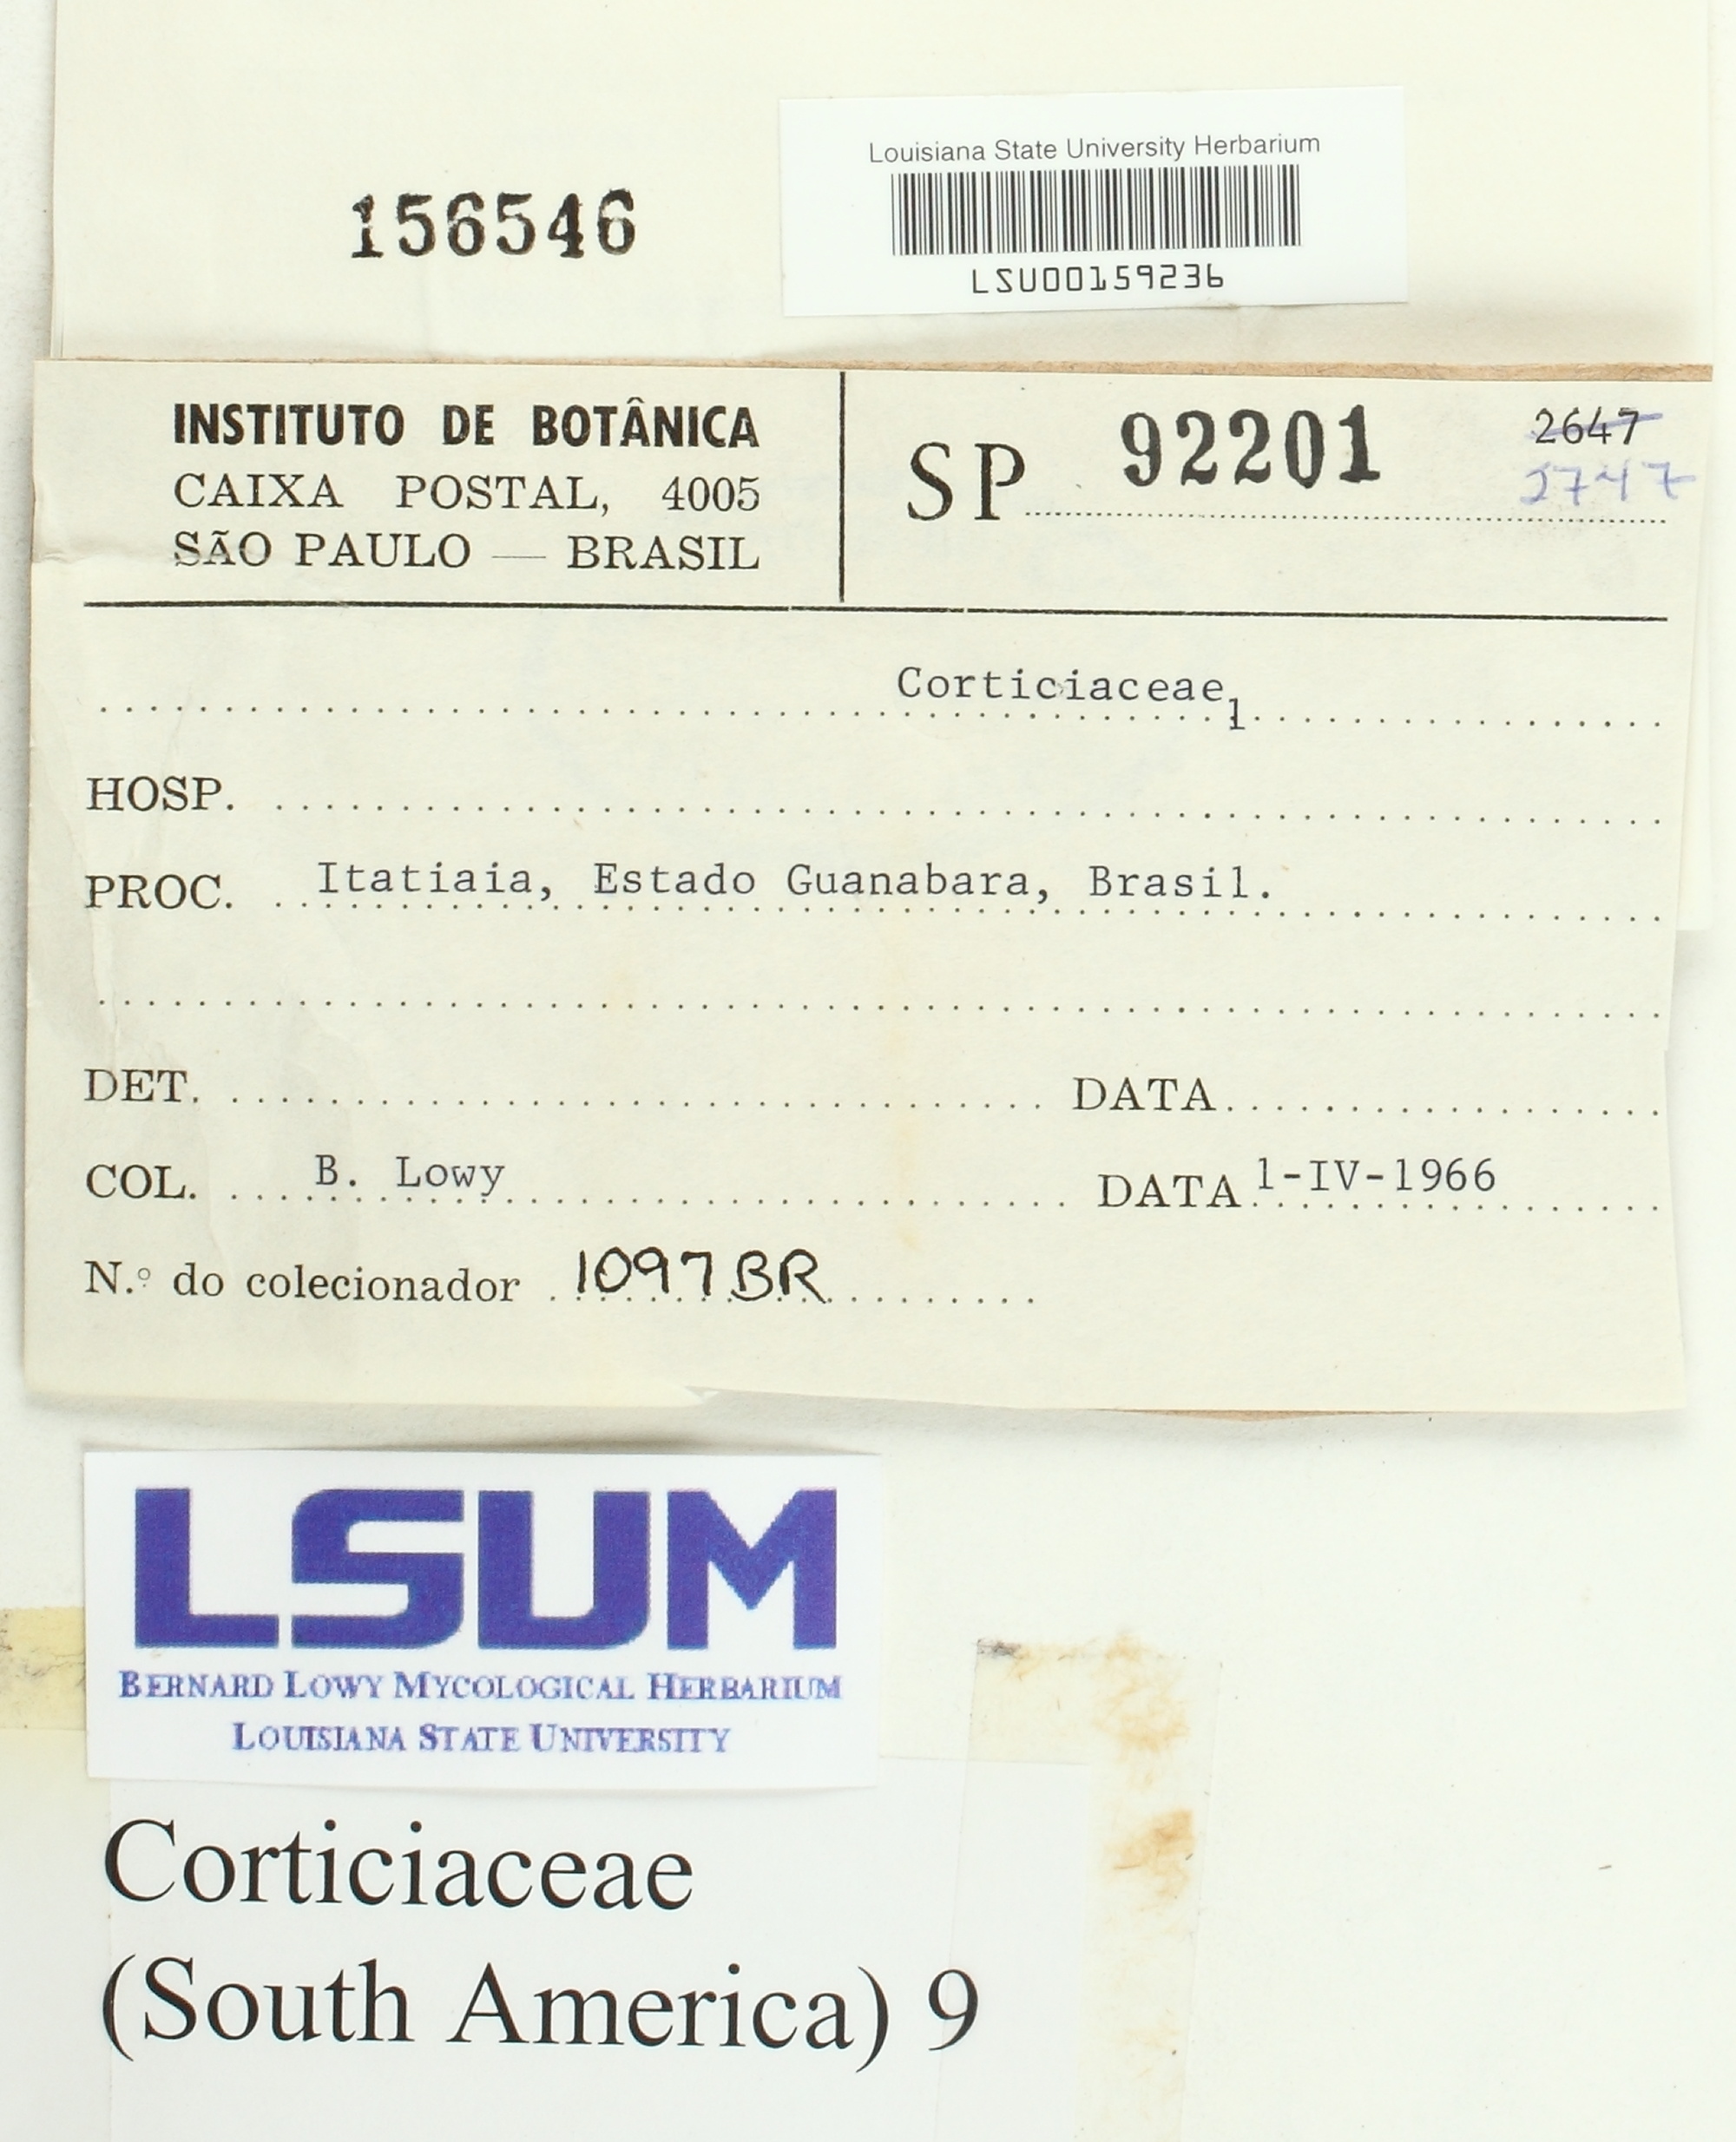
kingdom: Fungi
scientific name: Fungi
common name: Fungi
